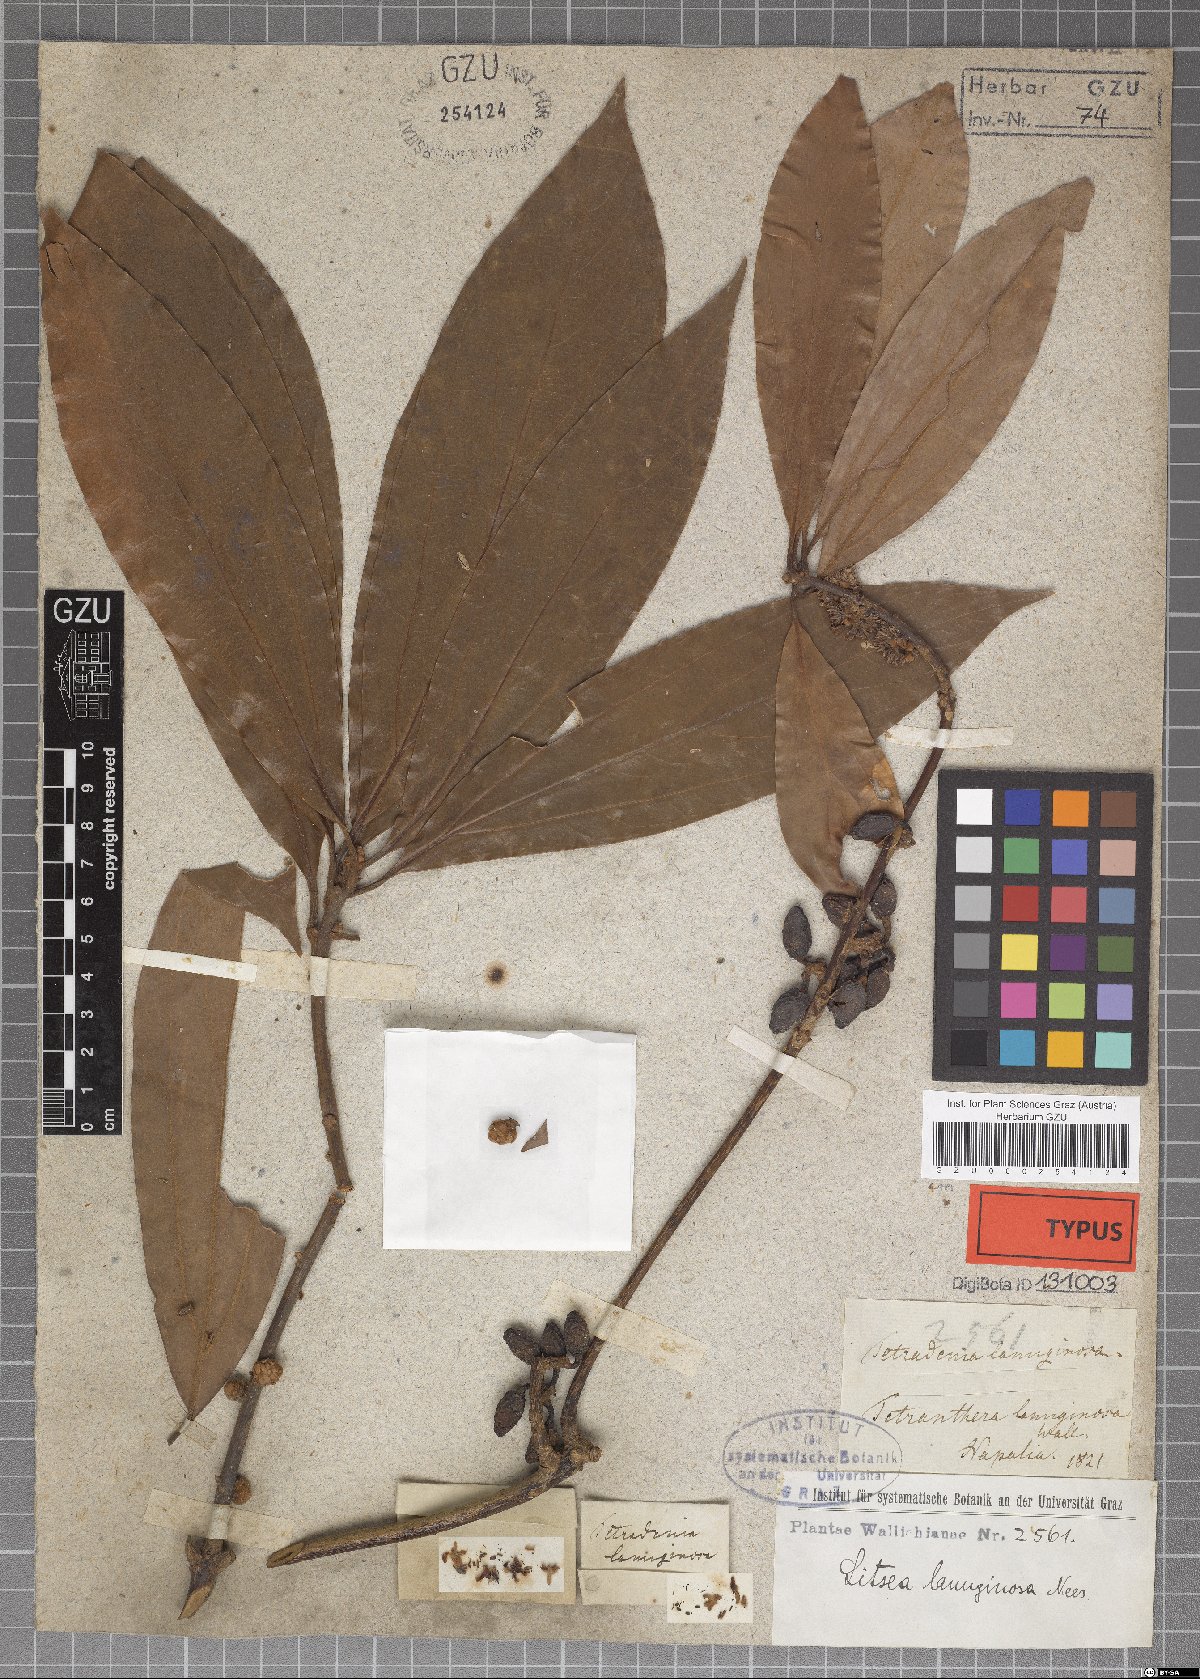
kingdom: Plantae
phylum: Tracheophyta
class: Magnoliopsida
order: Laurales
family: Lauraceae
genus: Neolitsea
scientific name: Neolitsea cuipala
